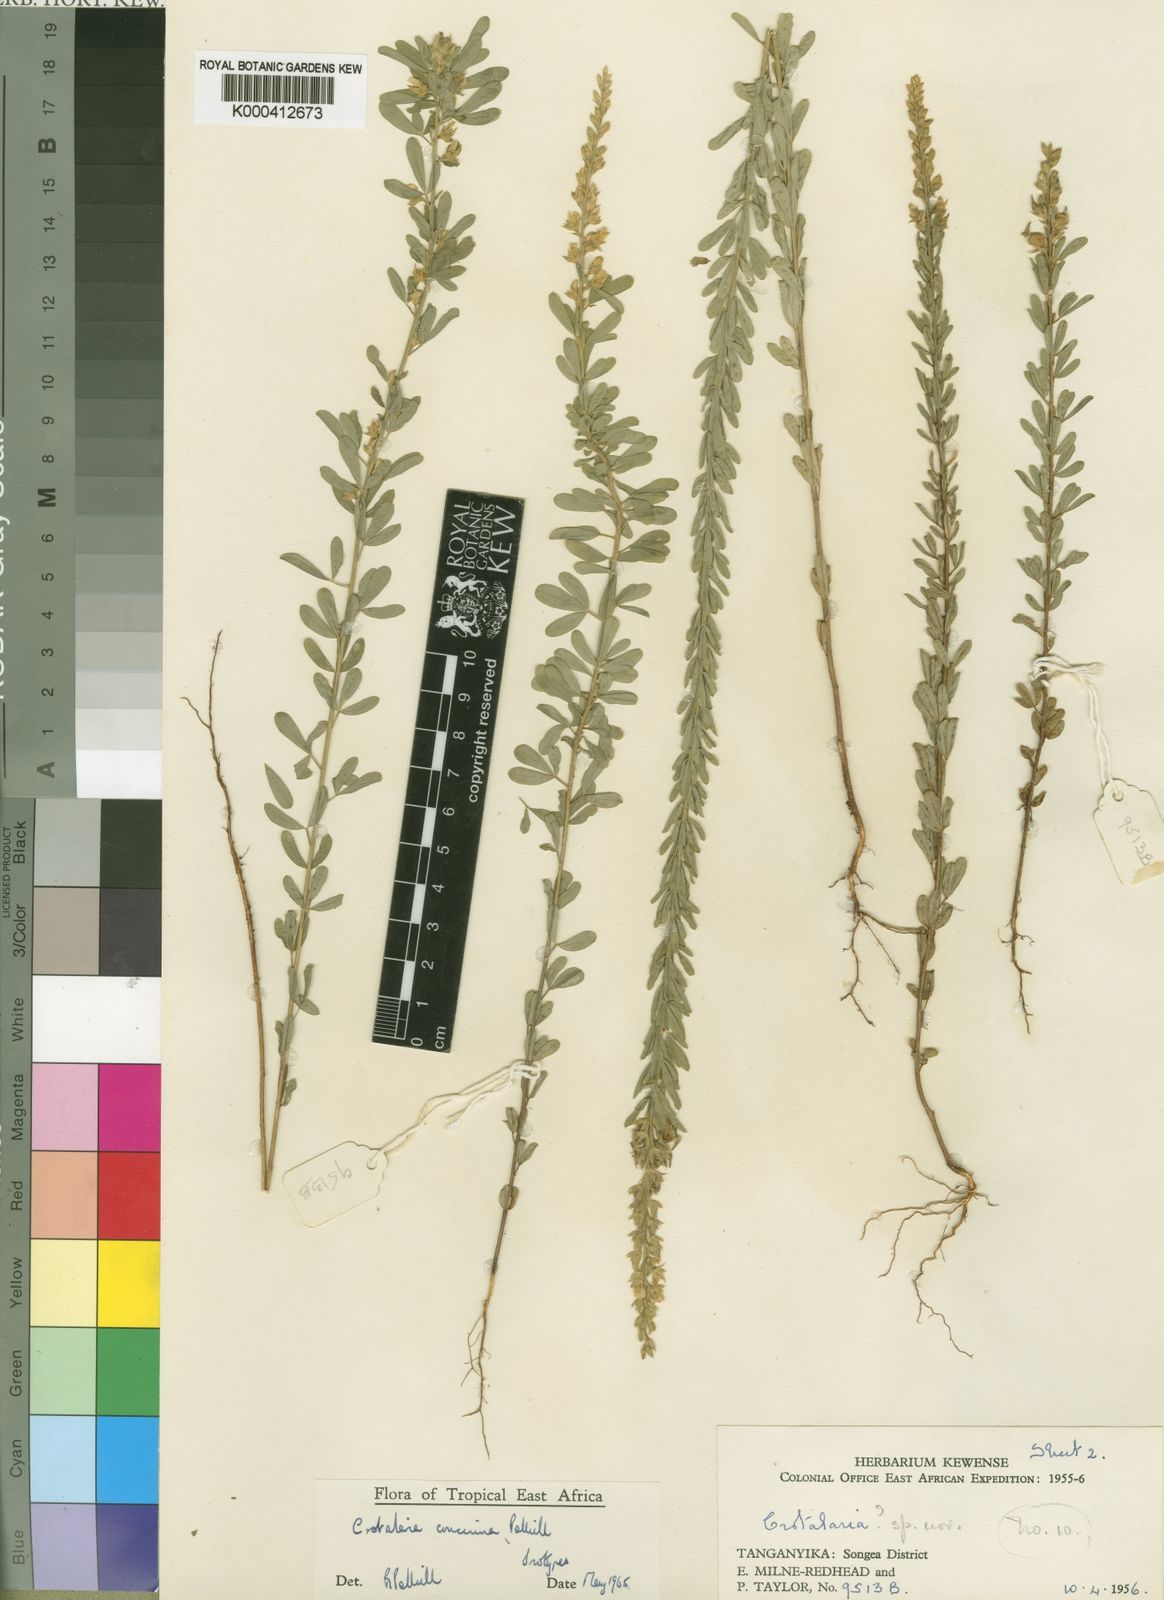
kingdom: Plantae
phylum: Tracheophyta
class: Magnoliopsida
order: Fabales
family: Fabaceae
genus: Crotalaria
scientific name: Crotalaria concinna
